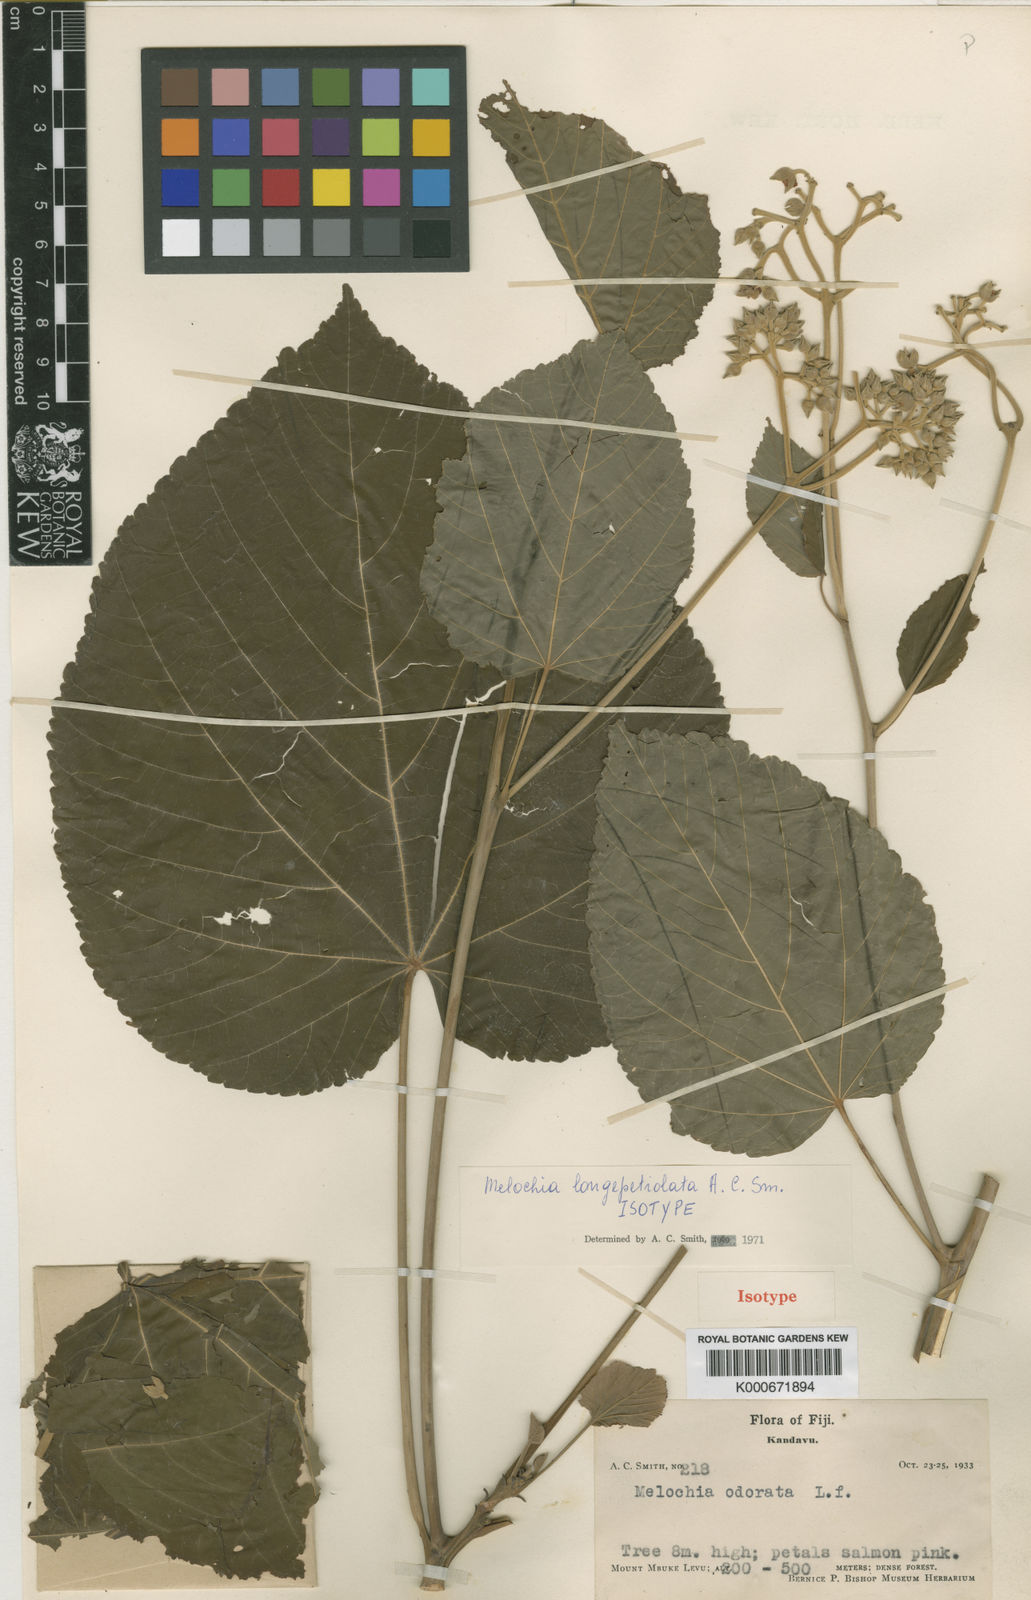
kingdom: Plantae
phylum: Tracheophyta
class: Magnoliopsida
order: Malvales
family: Malvaceae
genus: Melochia
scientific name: Melochia longepetiolata
